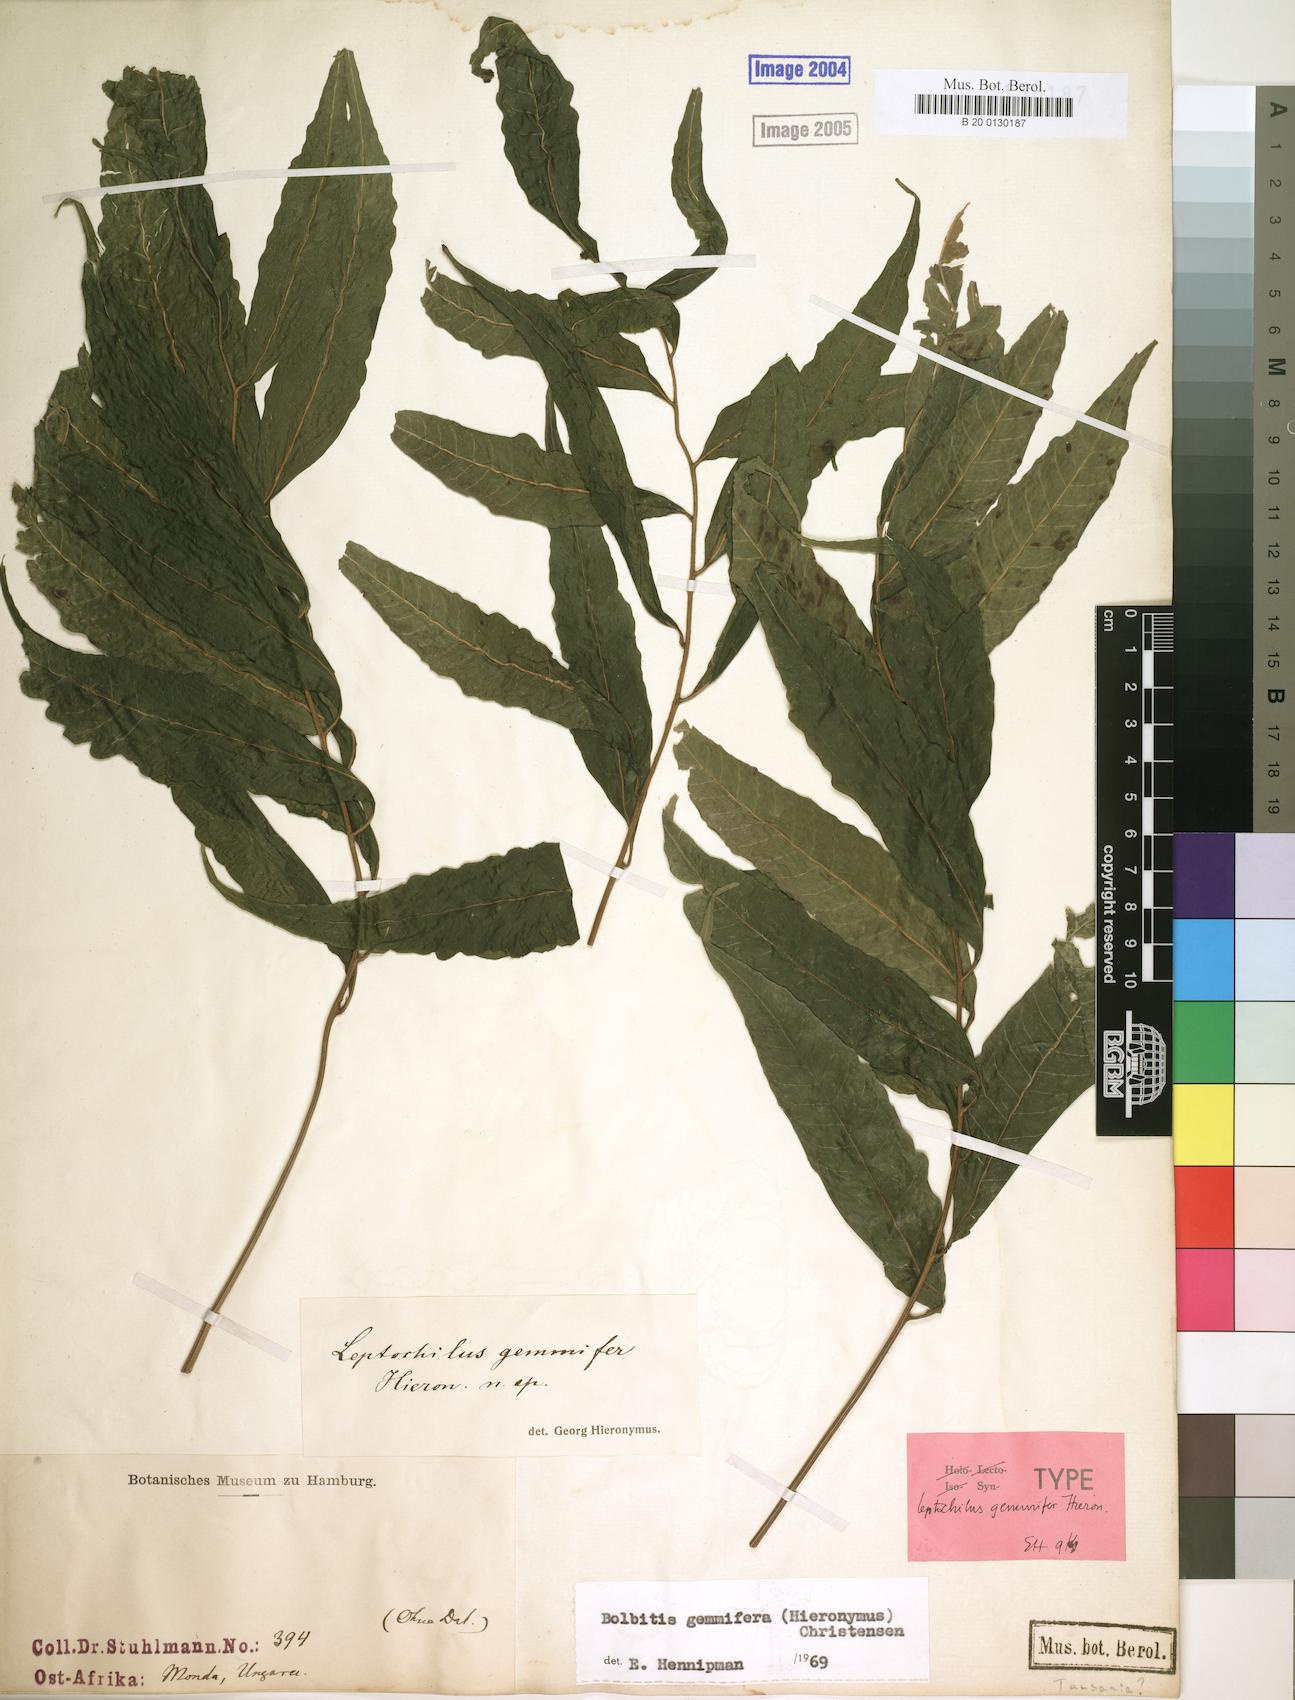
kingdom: Plantae
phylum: Tracheophyta
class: Polypodiopsida
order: Polypodiales
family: Dryopteridaceae
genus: Bolbitis
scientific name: Bolbitis gemmifer
